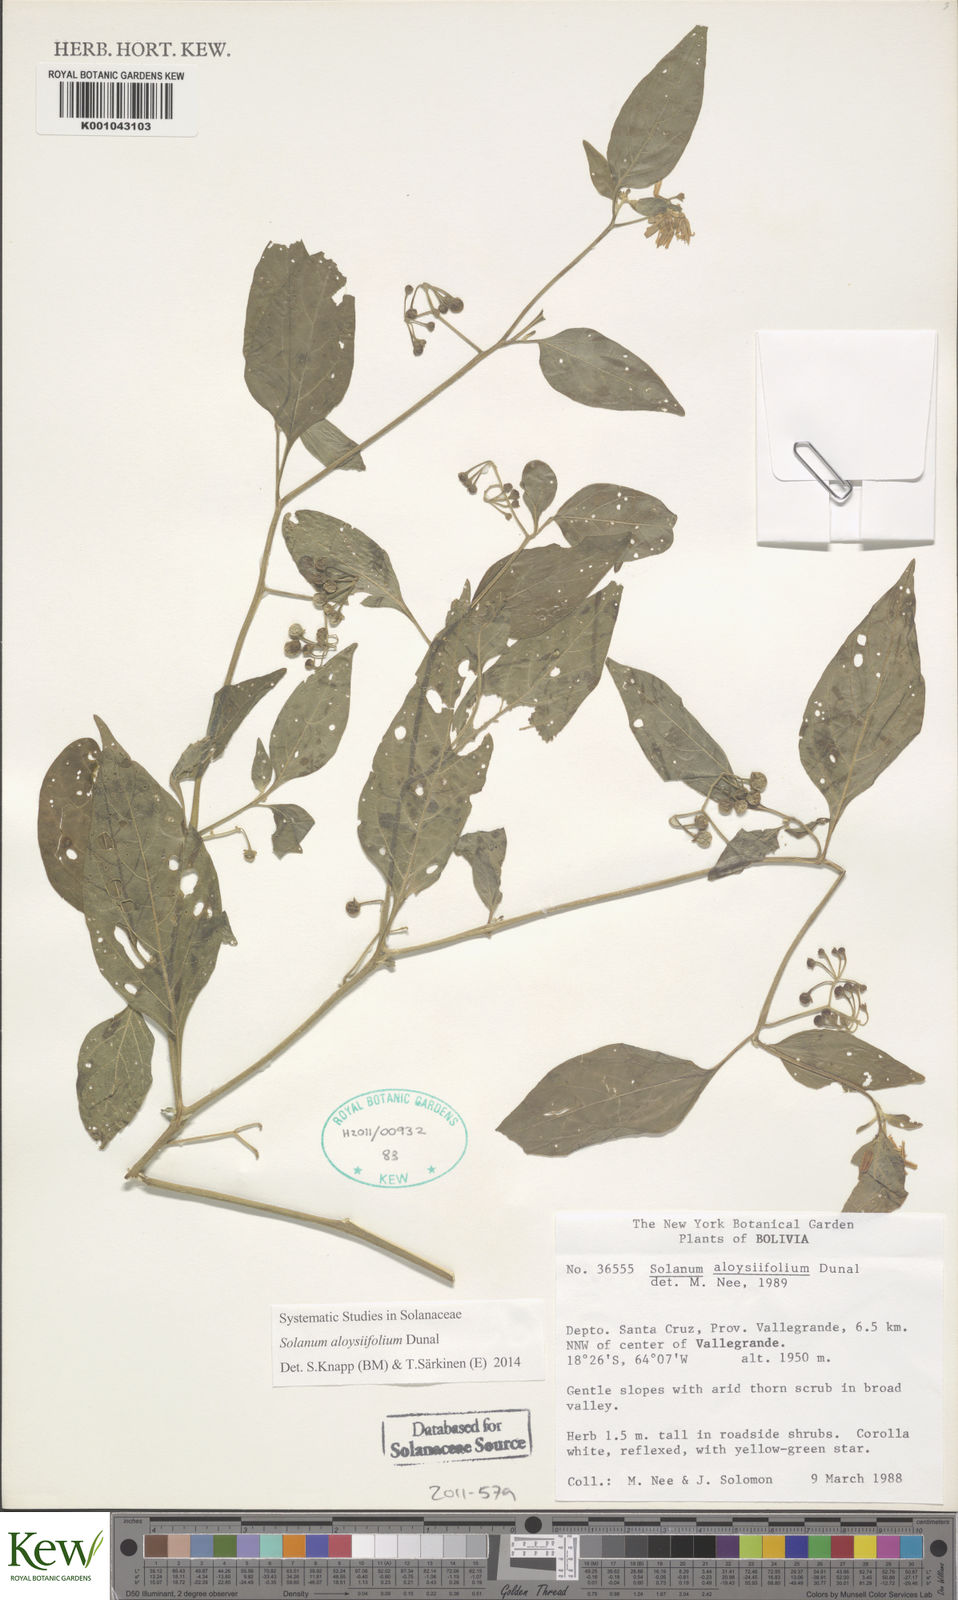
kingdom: Plantae
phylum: Tracheophyta
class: Magnoliopsida
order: Solanales
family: Solanaceae
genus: Solanum
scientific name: Solanum aloysiifolium
